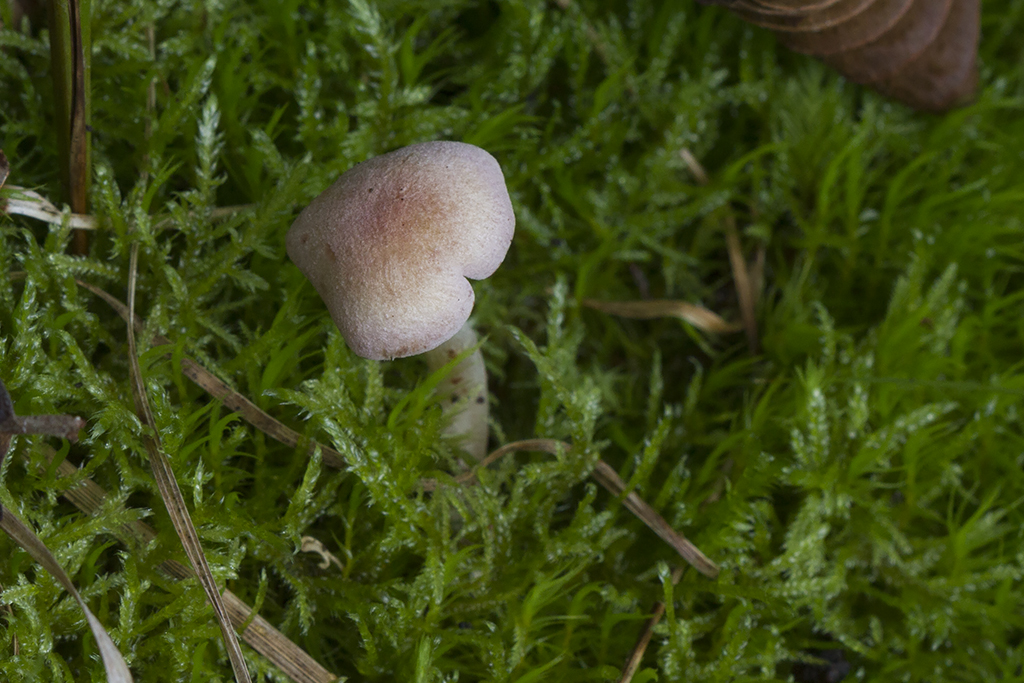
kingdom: Fungi
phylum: Basidiomycota
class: Agaricomycetes
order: Agaricales
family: Entolomataceae
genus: Entoloma
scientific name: Entoloma queletii
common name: rosalilla rødblad
